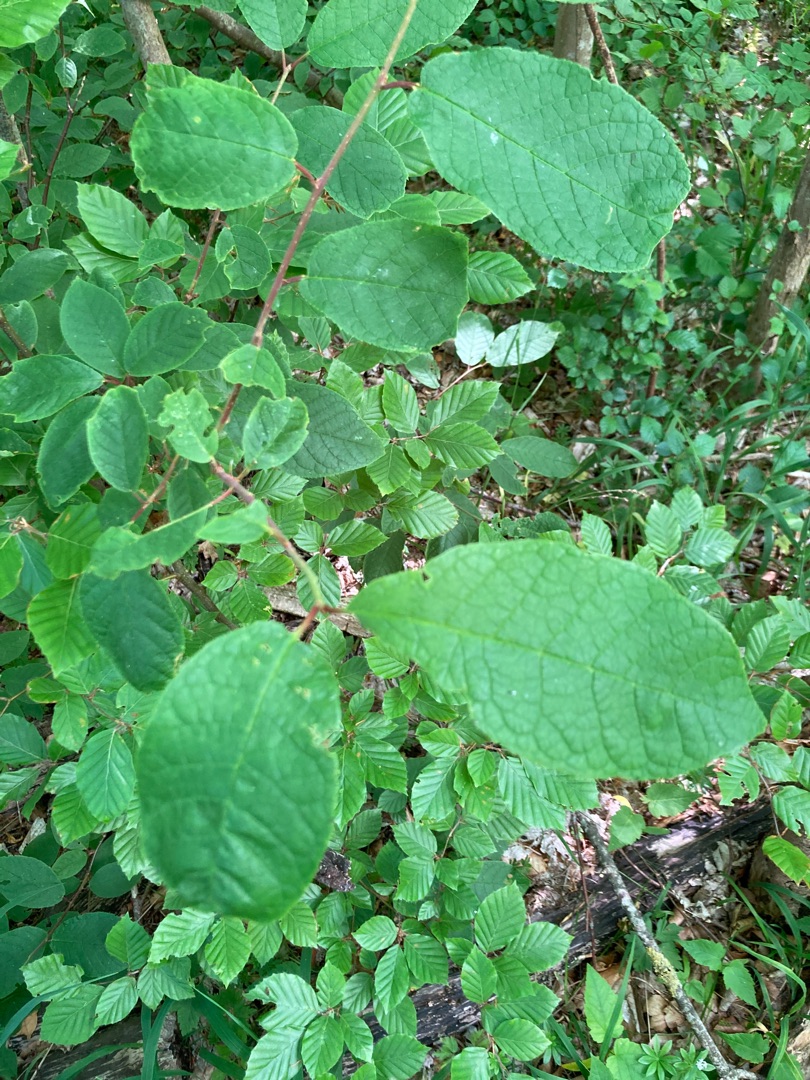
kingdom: Plantae
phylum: Tracheophyta
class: Magnoliopsida
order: Rosales
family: Rosaceae
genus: Prunus
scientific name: Prunus padus
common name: Almindelig hæg
